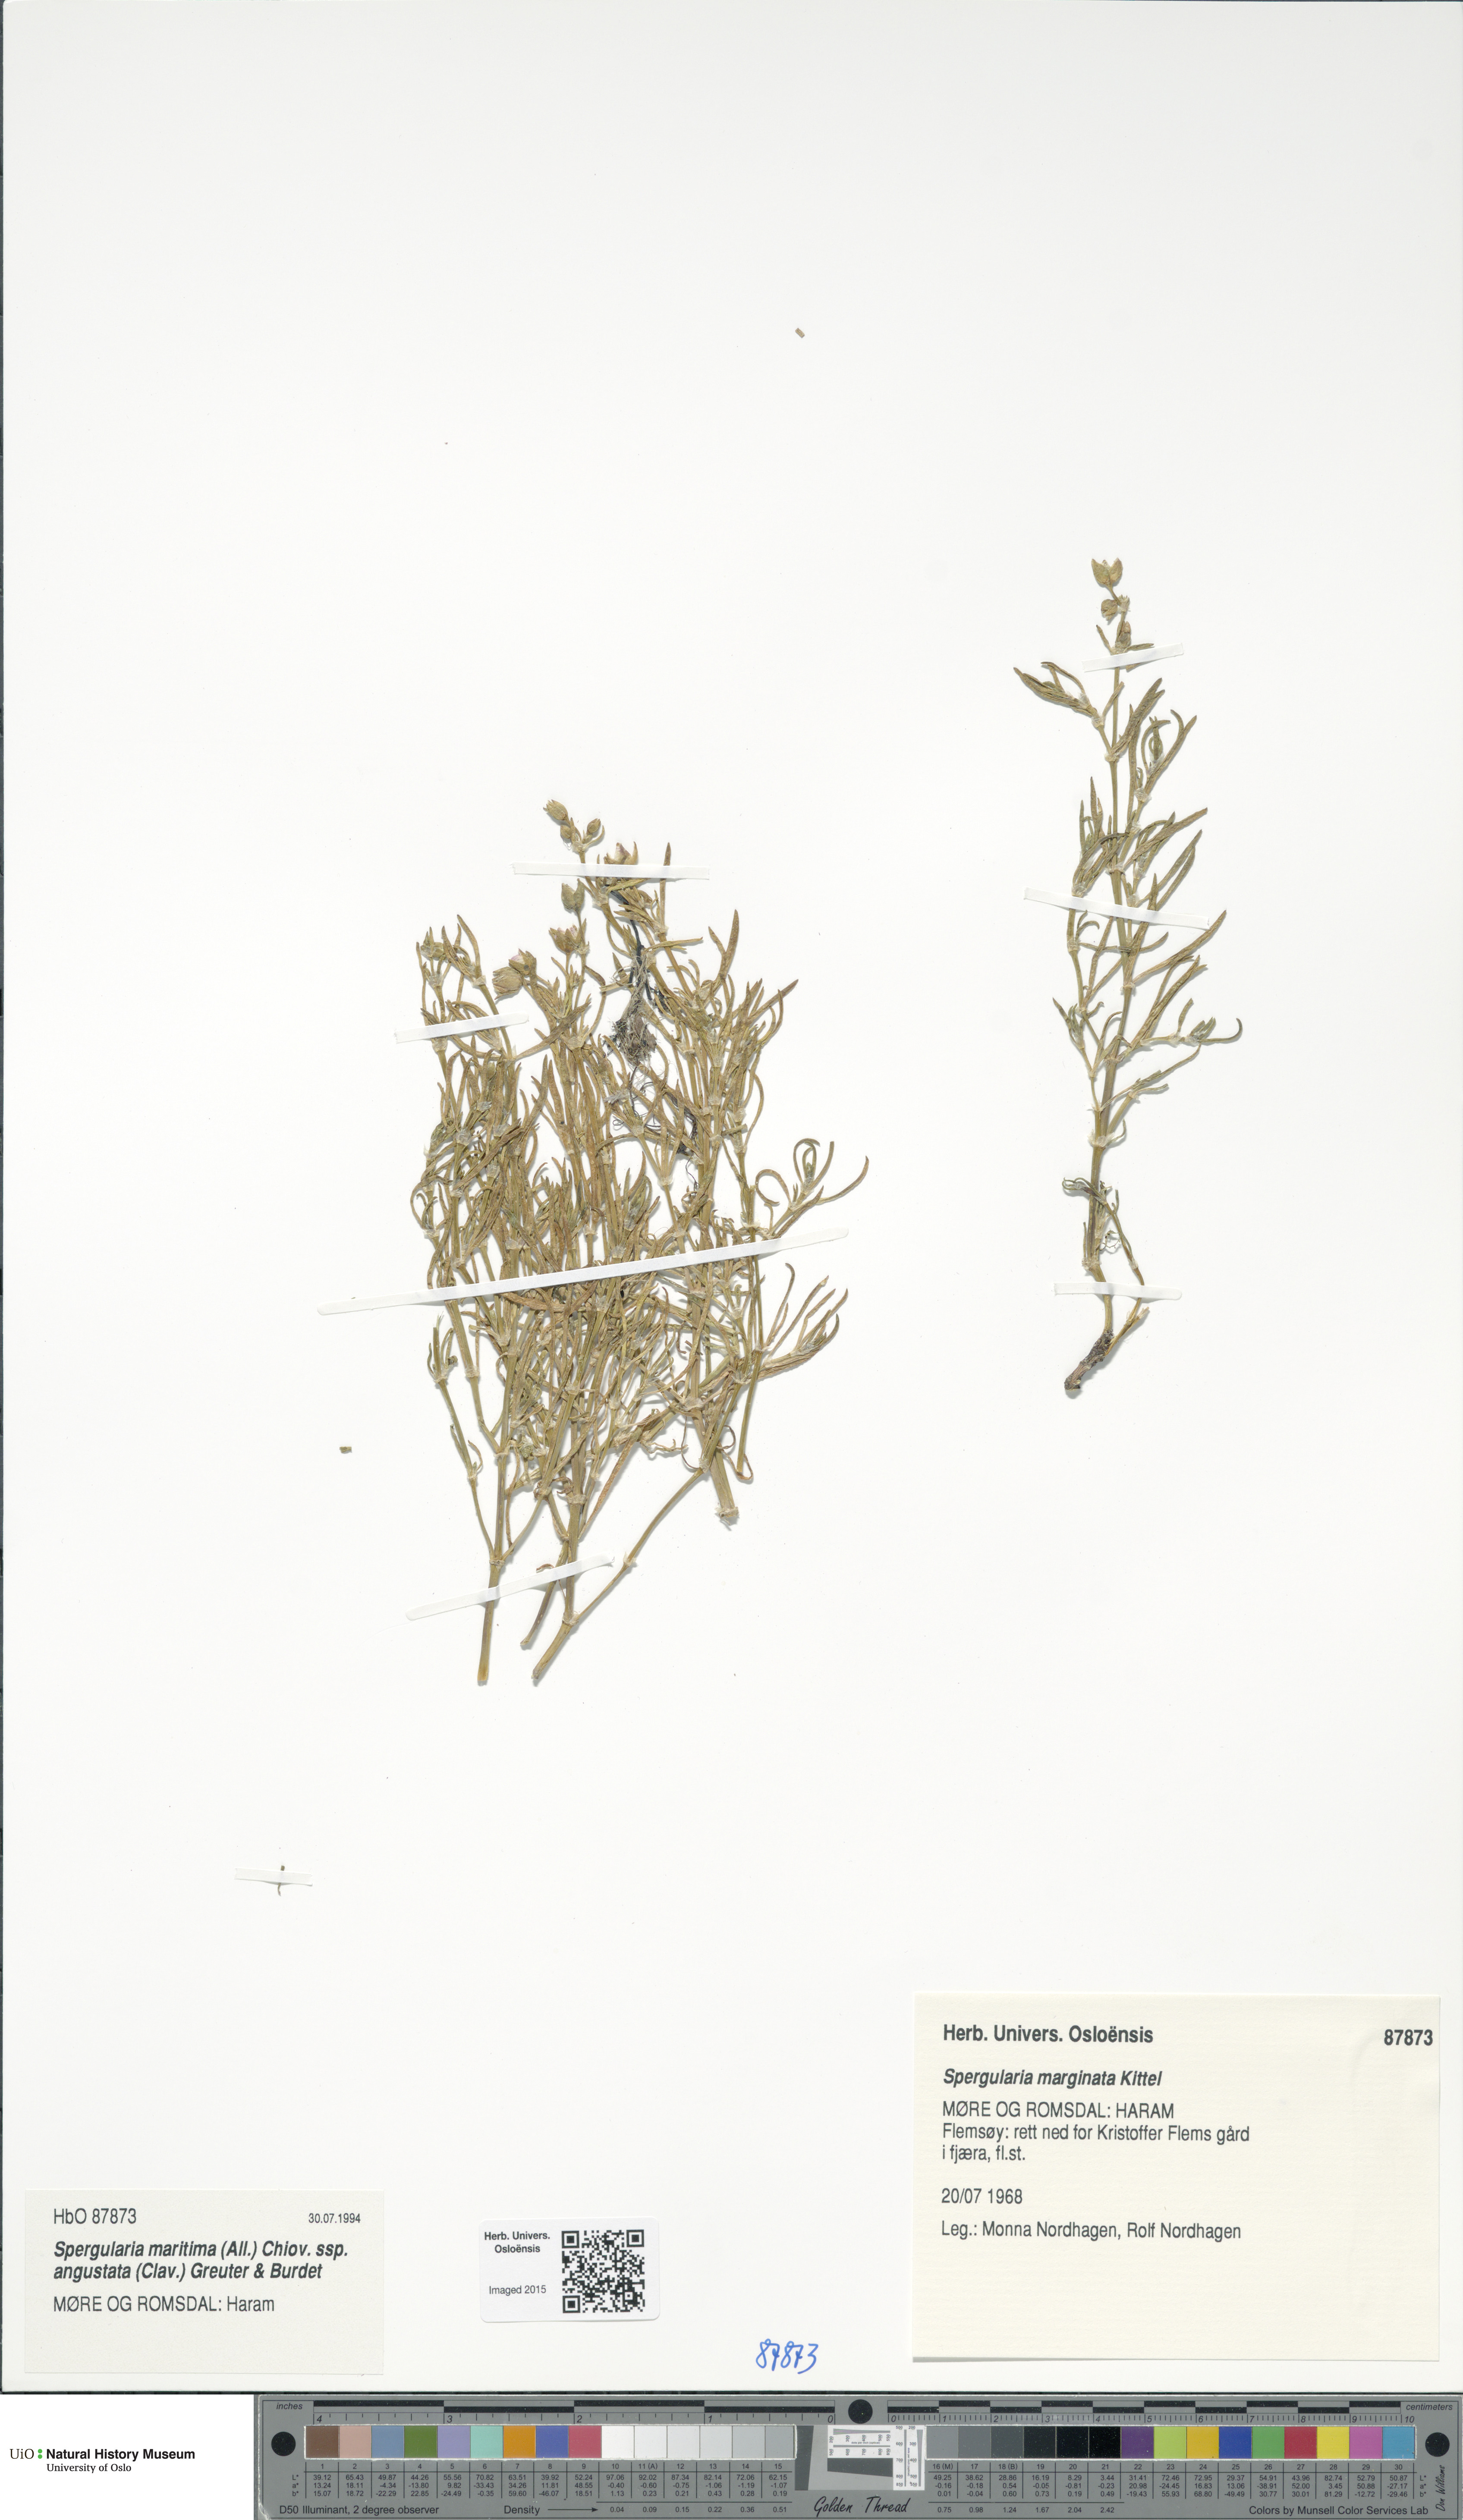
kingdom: Plantae
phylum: Tracheophyta
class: Magnoliopsida
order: Caryophyllales
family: Caryophyllaceae
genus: Spergularia
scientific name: Spergularia media
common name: Greater sea-spurrey
